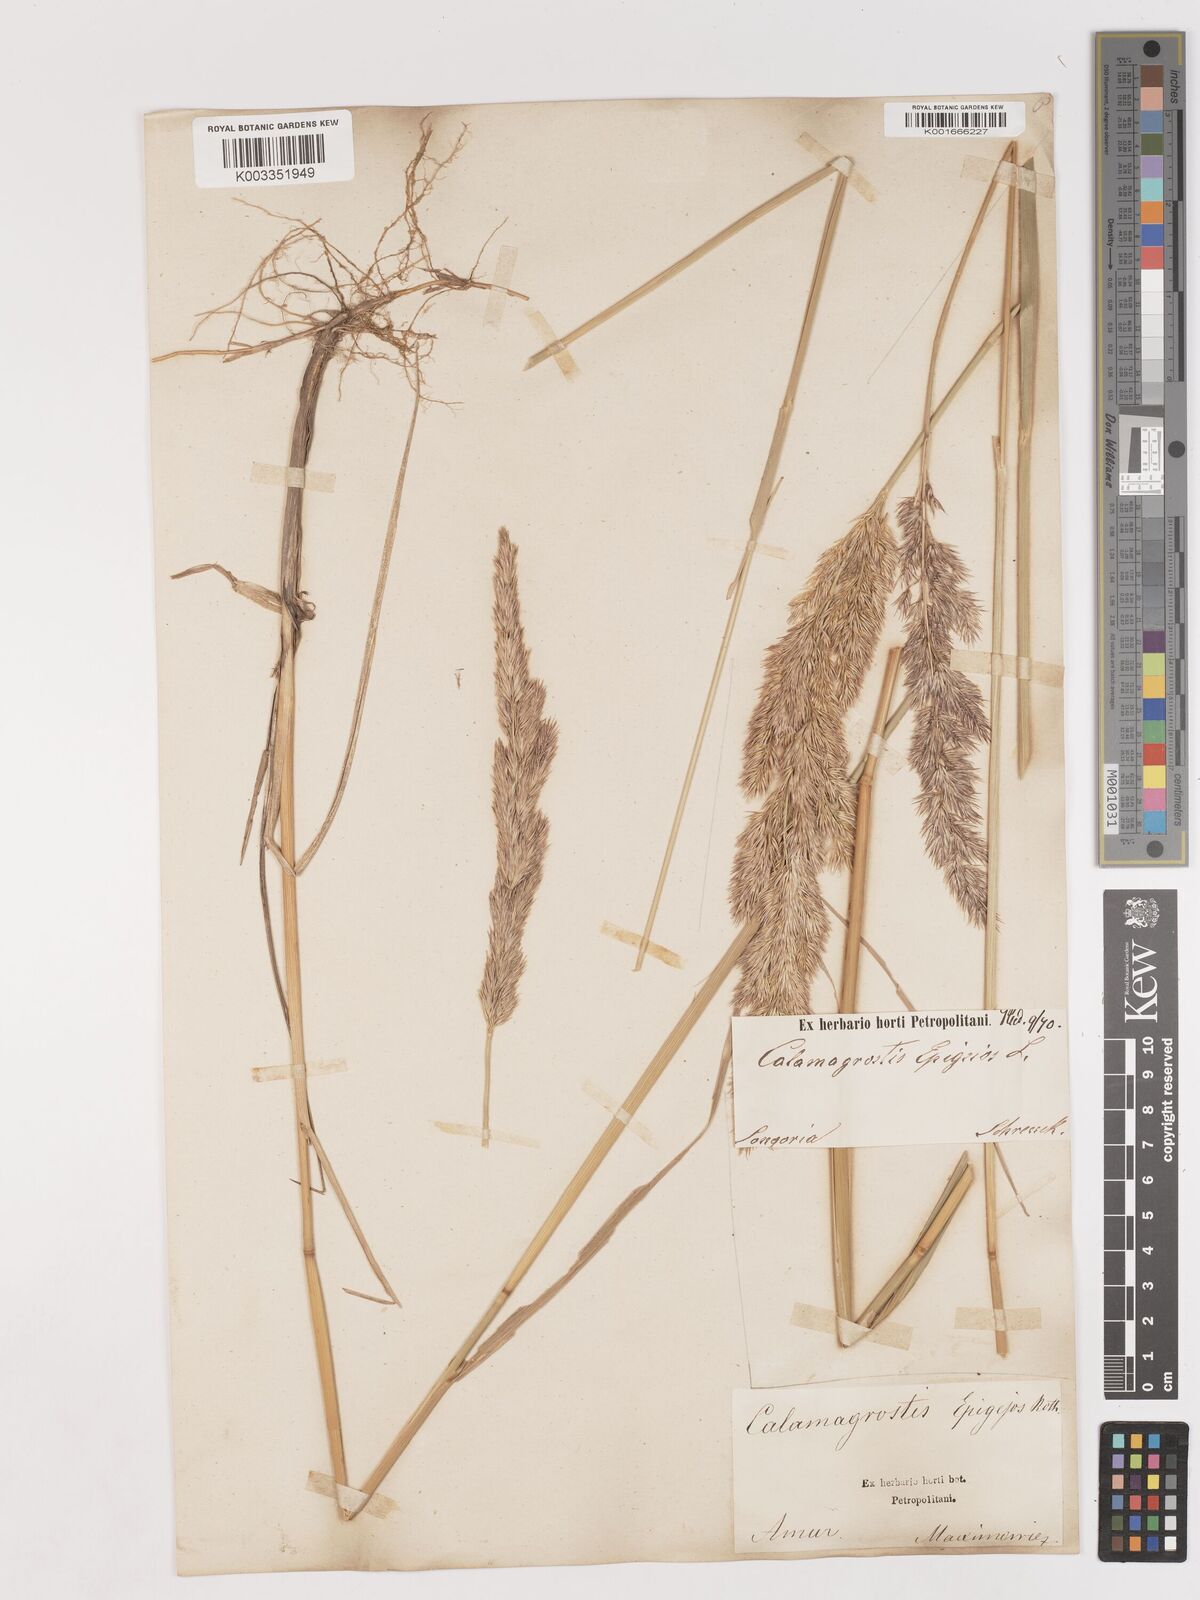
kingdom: Plantae
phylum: Tracheophyta
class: Liliopsida
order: Poales
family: Poaceae
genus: Calamagrostis
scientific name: Calamagrostis epigejos
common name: Wood small-reed
